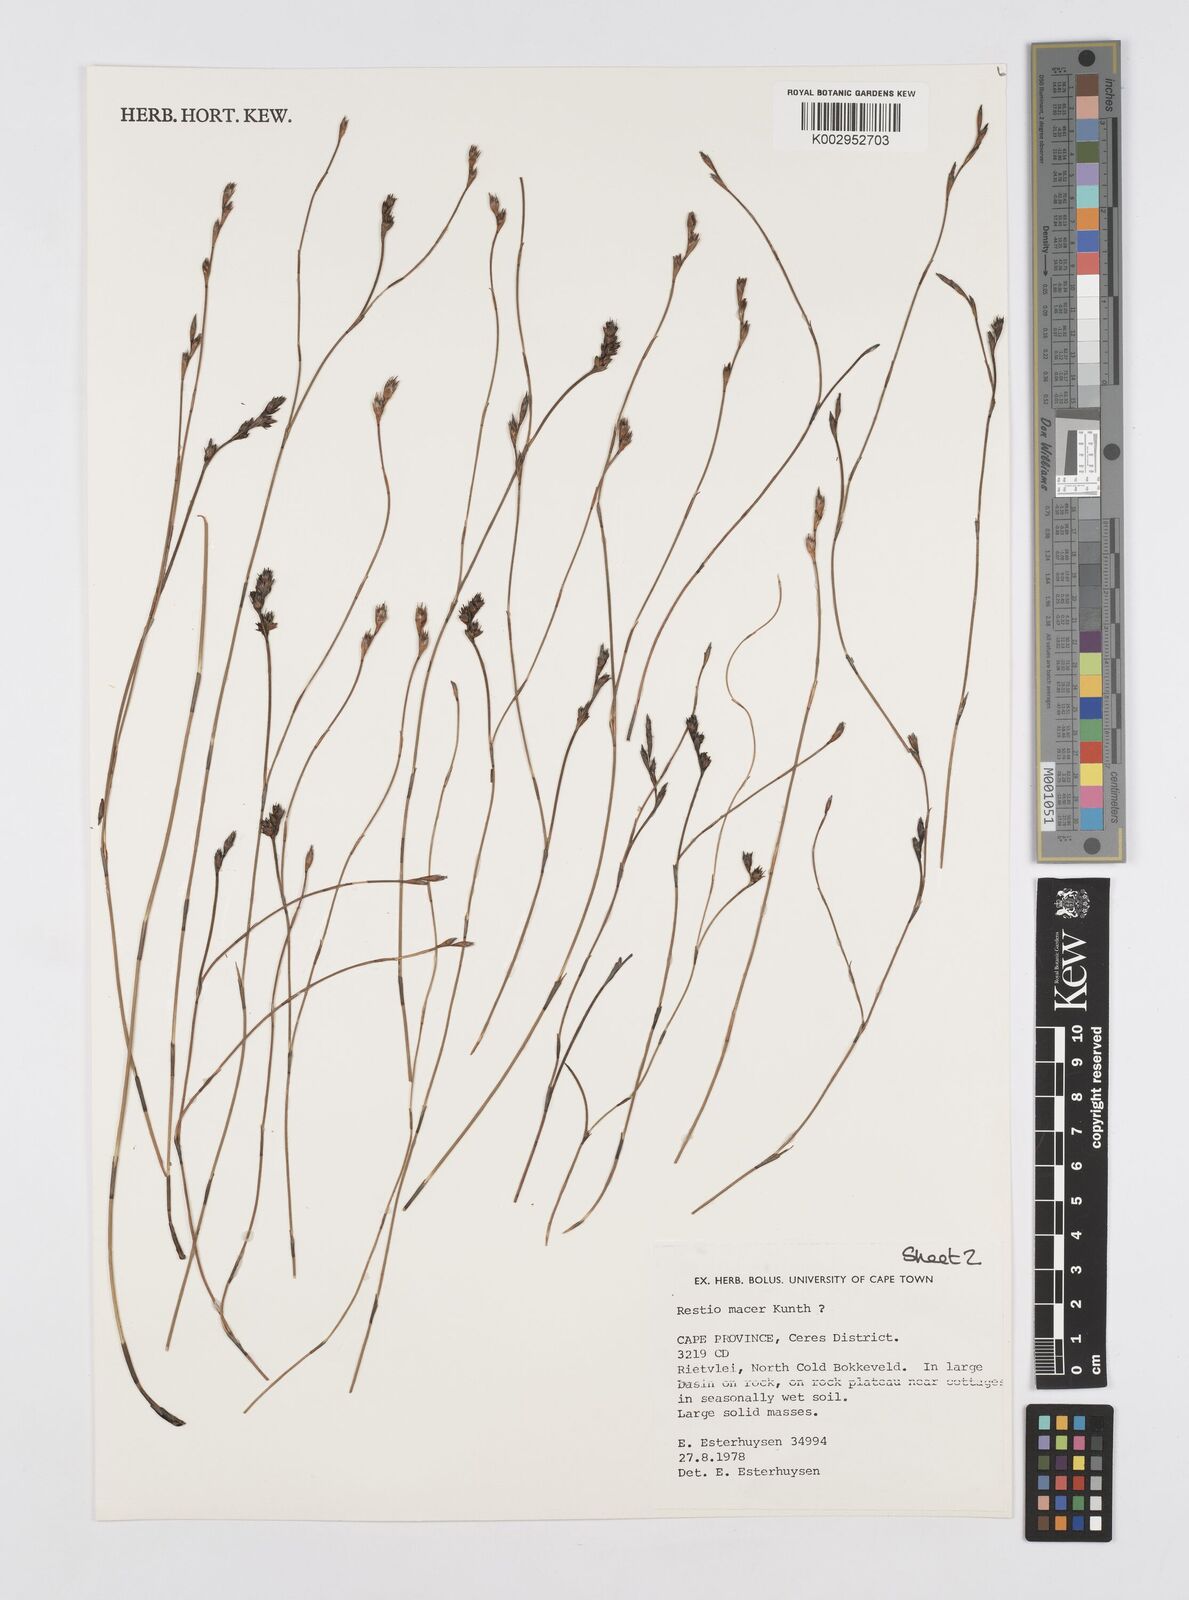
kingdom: Plantae
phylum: Tracheophyta
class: Liliopsida
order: Poales
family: Restionaceae
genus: Restio
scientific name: Restio macer
